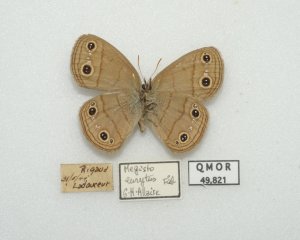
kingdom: Animalia
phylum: Arthropoda
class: Insecta
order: Lepidoptera
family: Nymphalidae
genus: Euptychia
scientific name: Euptychia cymela
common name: Little Wood Satyr
